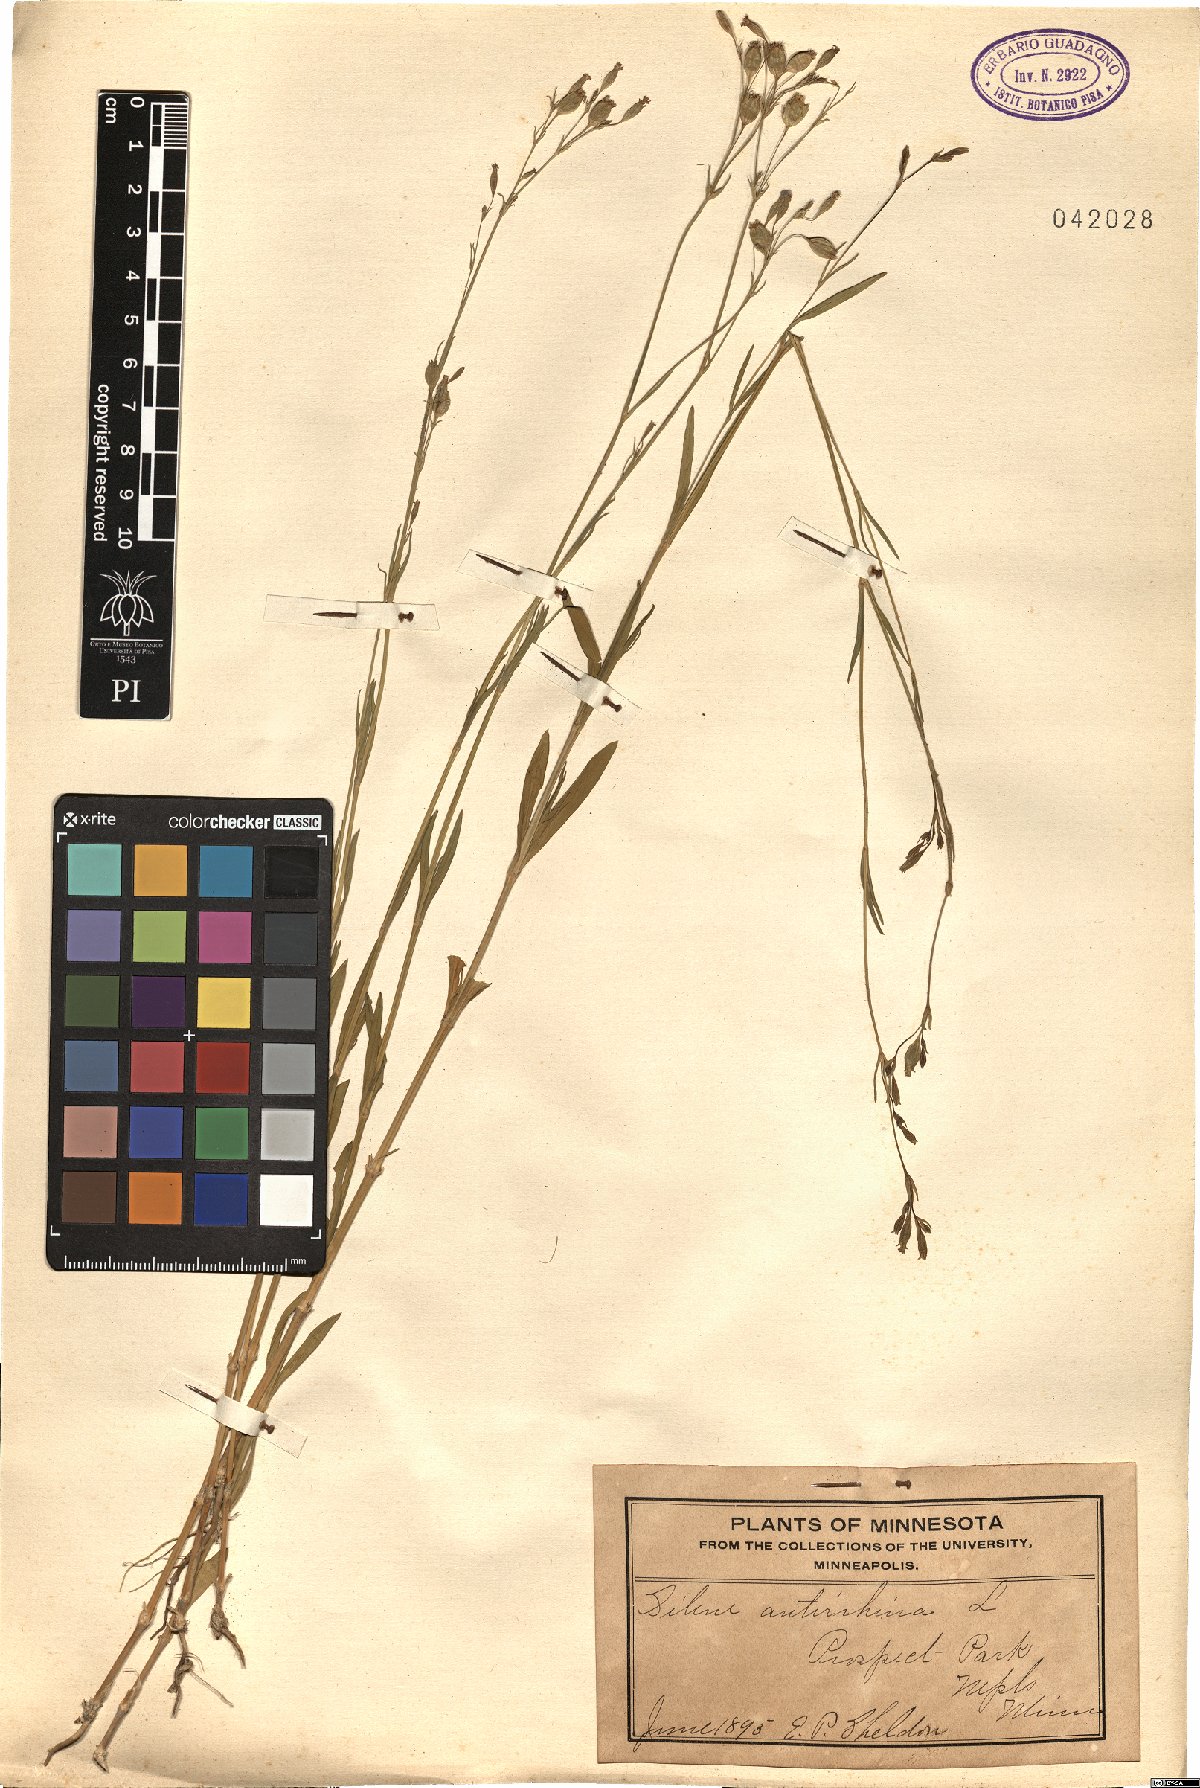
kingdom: Plantae
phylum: Tracheophyta
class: Magnoliopsida
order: Caryophyllales
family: Caryophyllaceae
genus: Silene
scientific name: Silene antirrhina
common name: Sleepy catchfly
